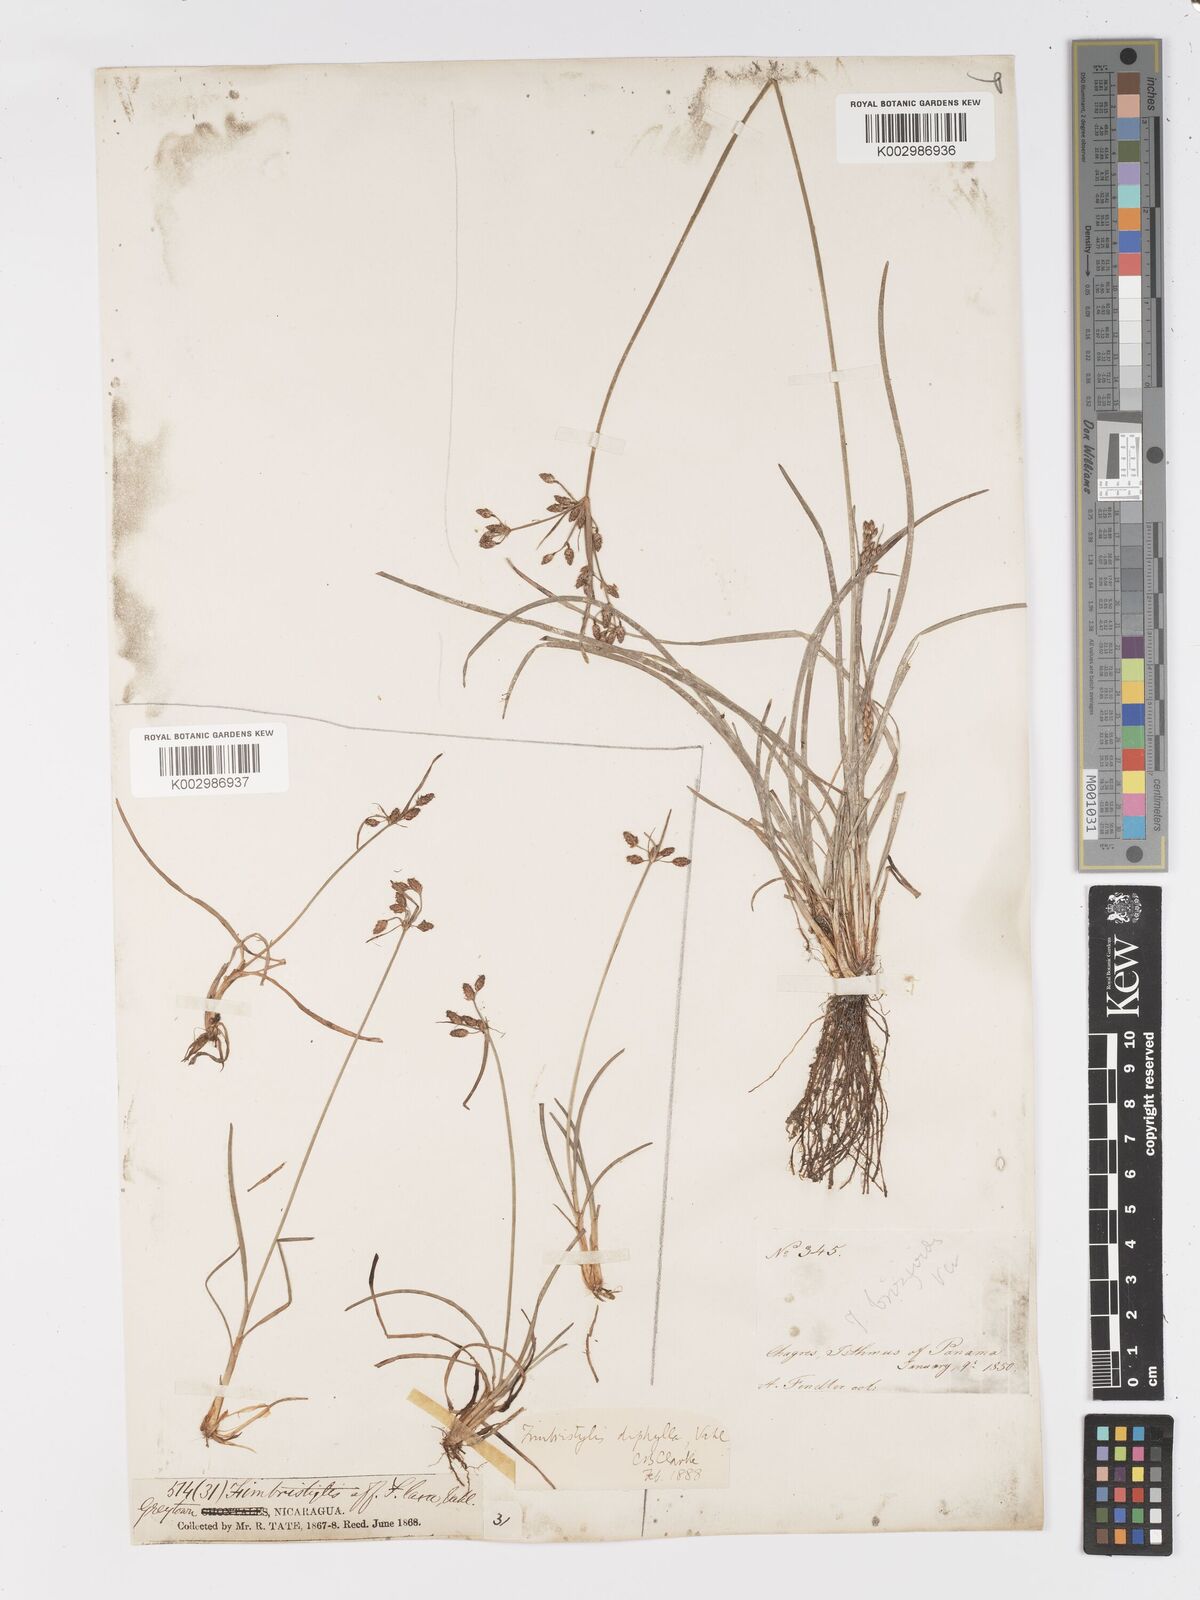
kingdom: Plantae
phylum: Tracheophyta
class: Liliopsida
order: Poales
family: Cyperaceae
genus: Fimbristylis
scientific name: Fimbristylis dichotoma
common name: Forked fimbry
